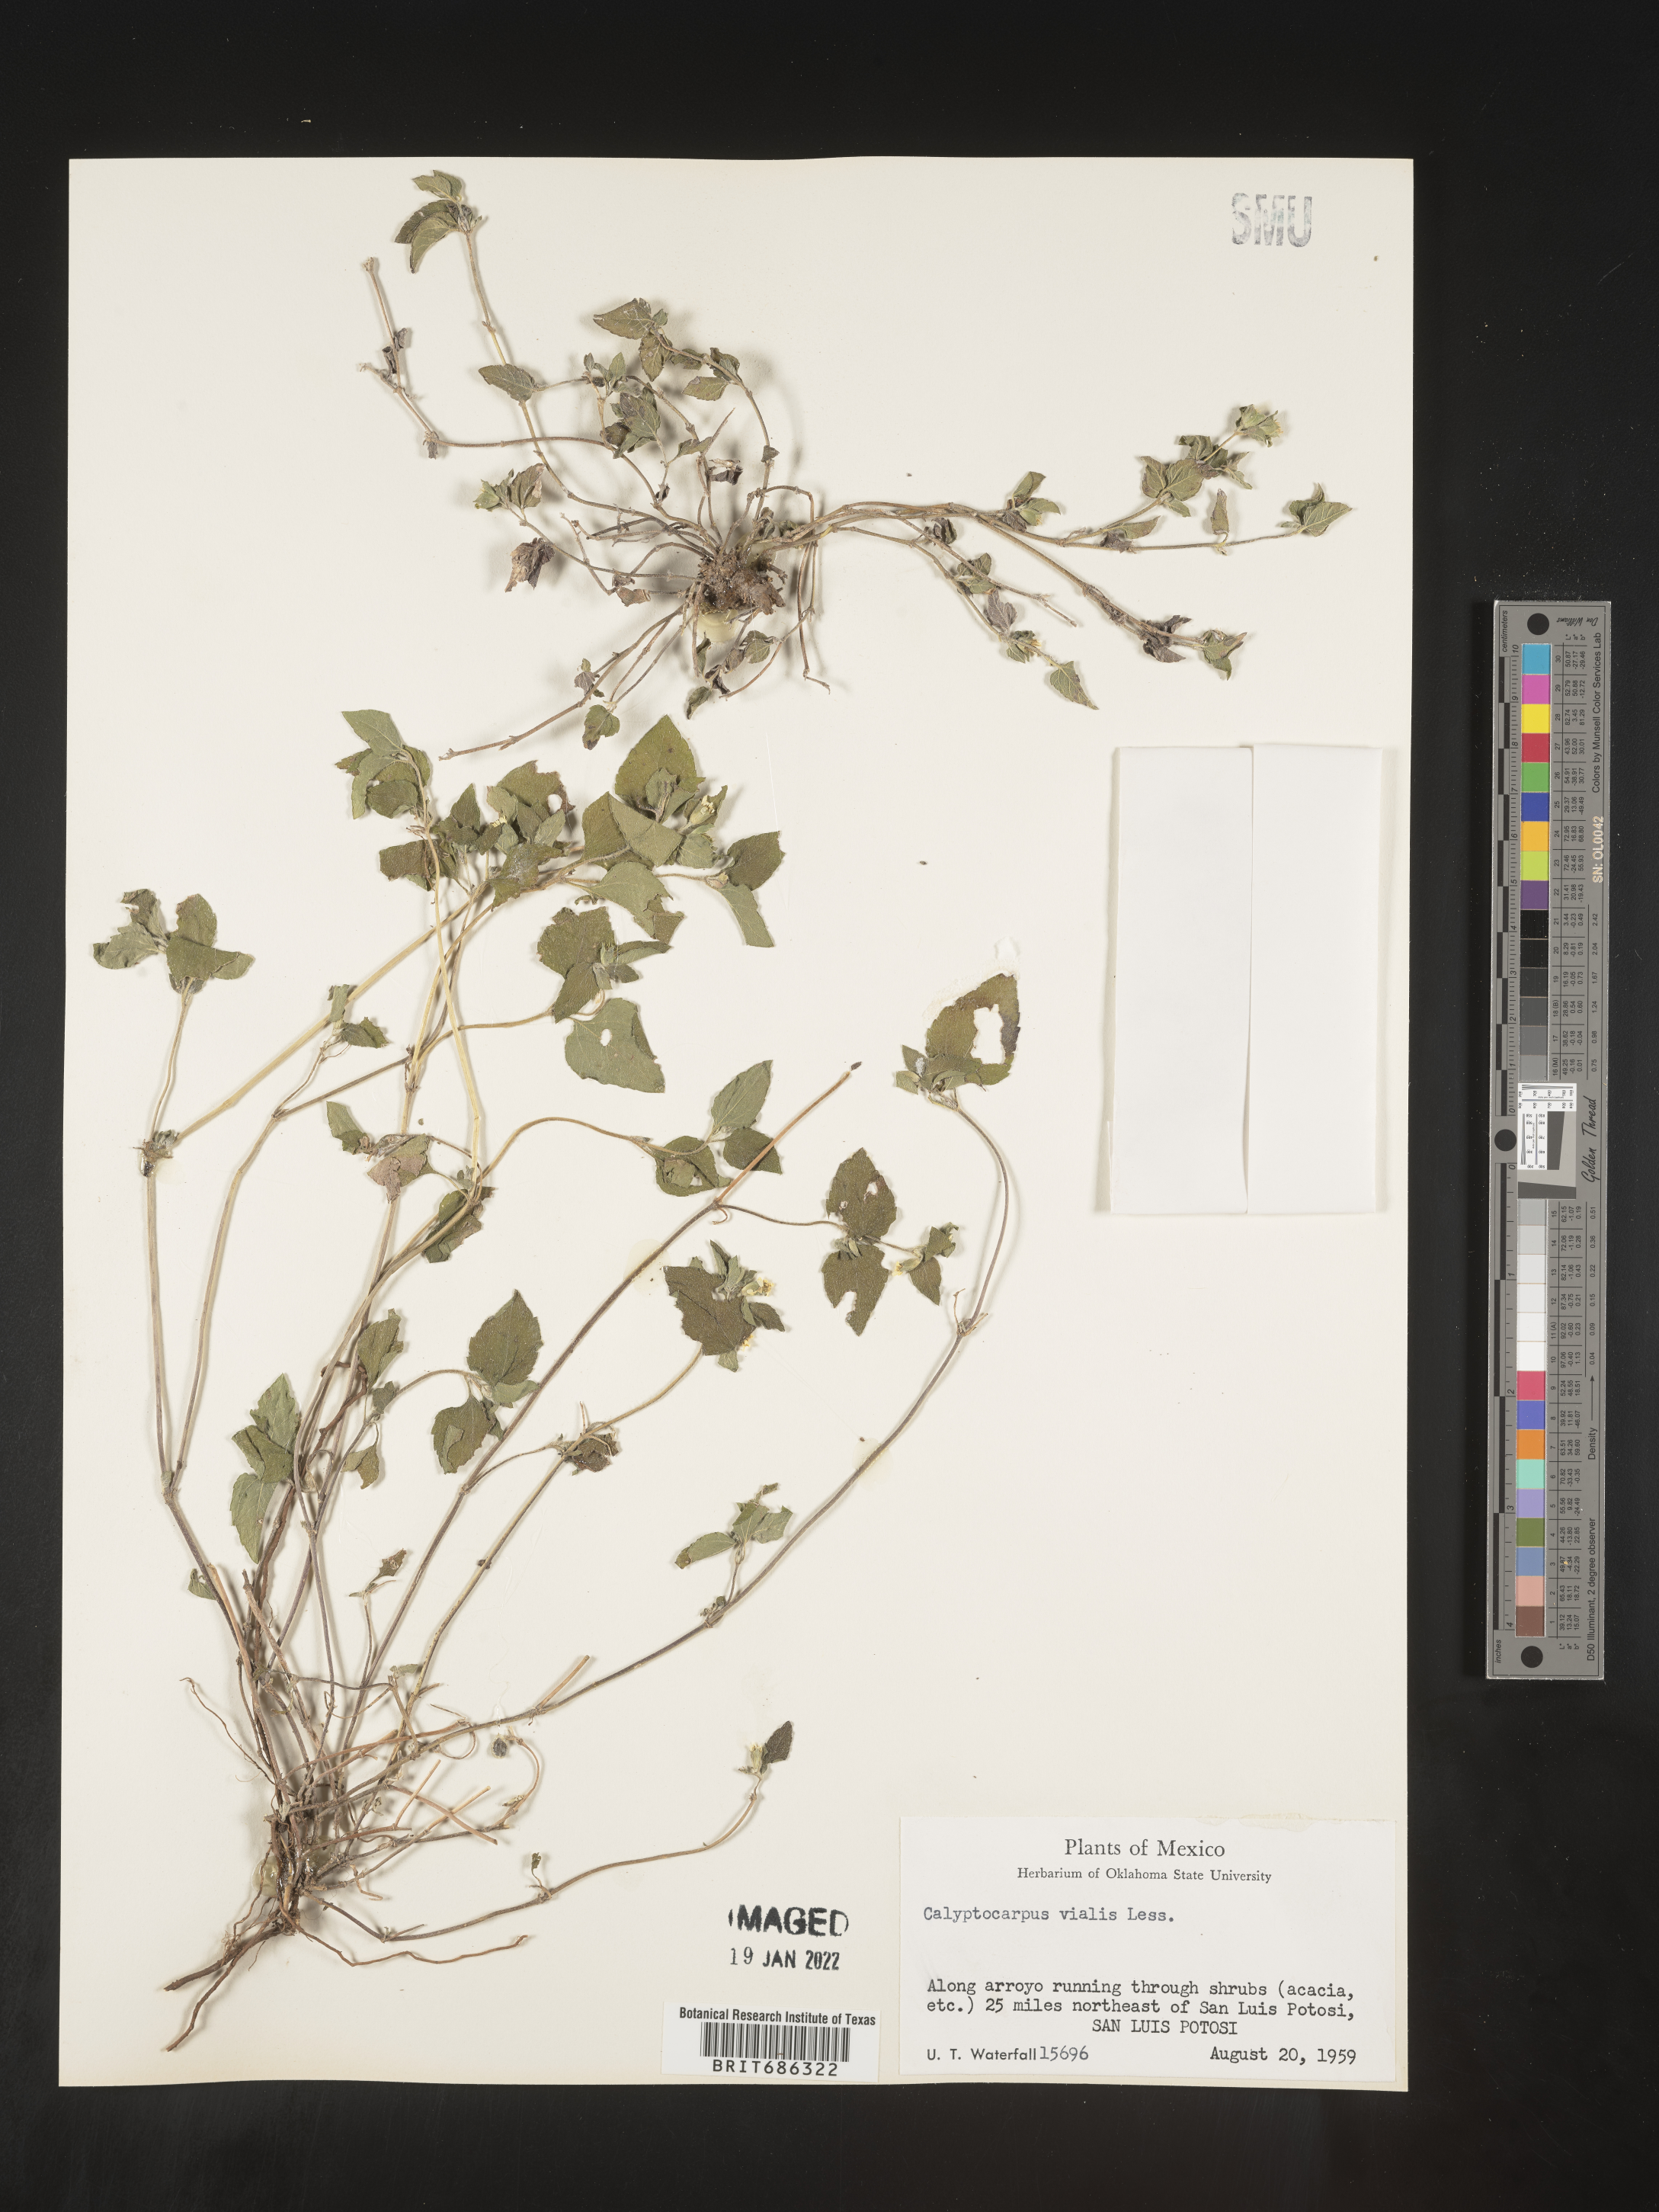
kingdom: Plantae
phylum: Tracheophyta
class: Magnoliopsida
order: Asterales
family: Asteraceae
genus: Calyptocarpus
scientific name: Calyptocarpus
